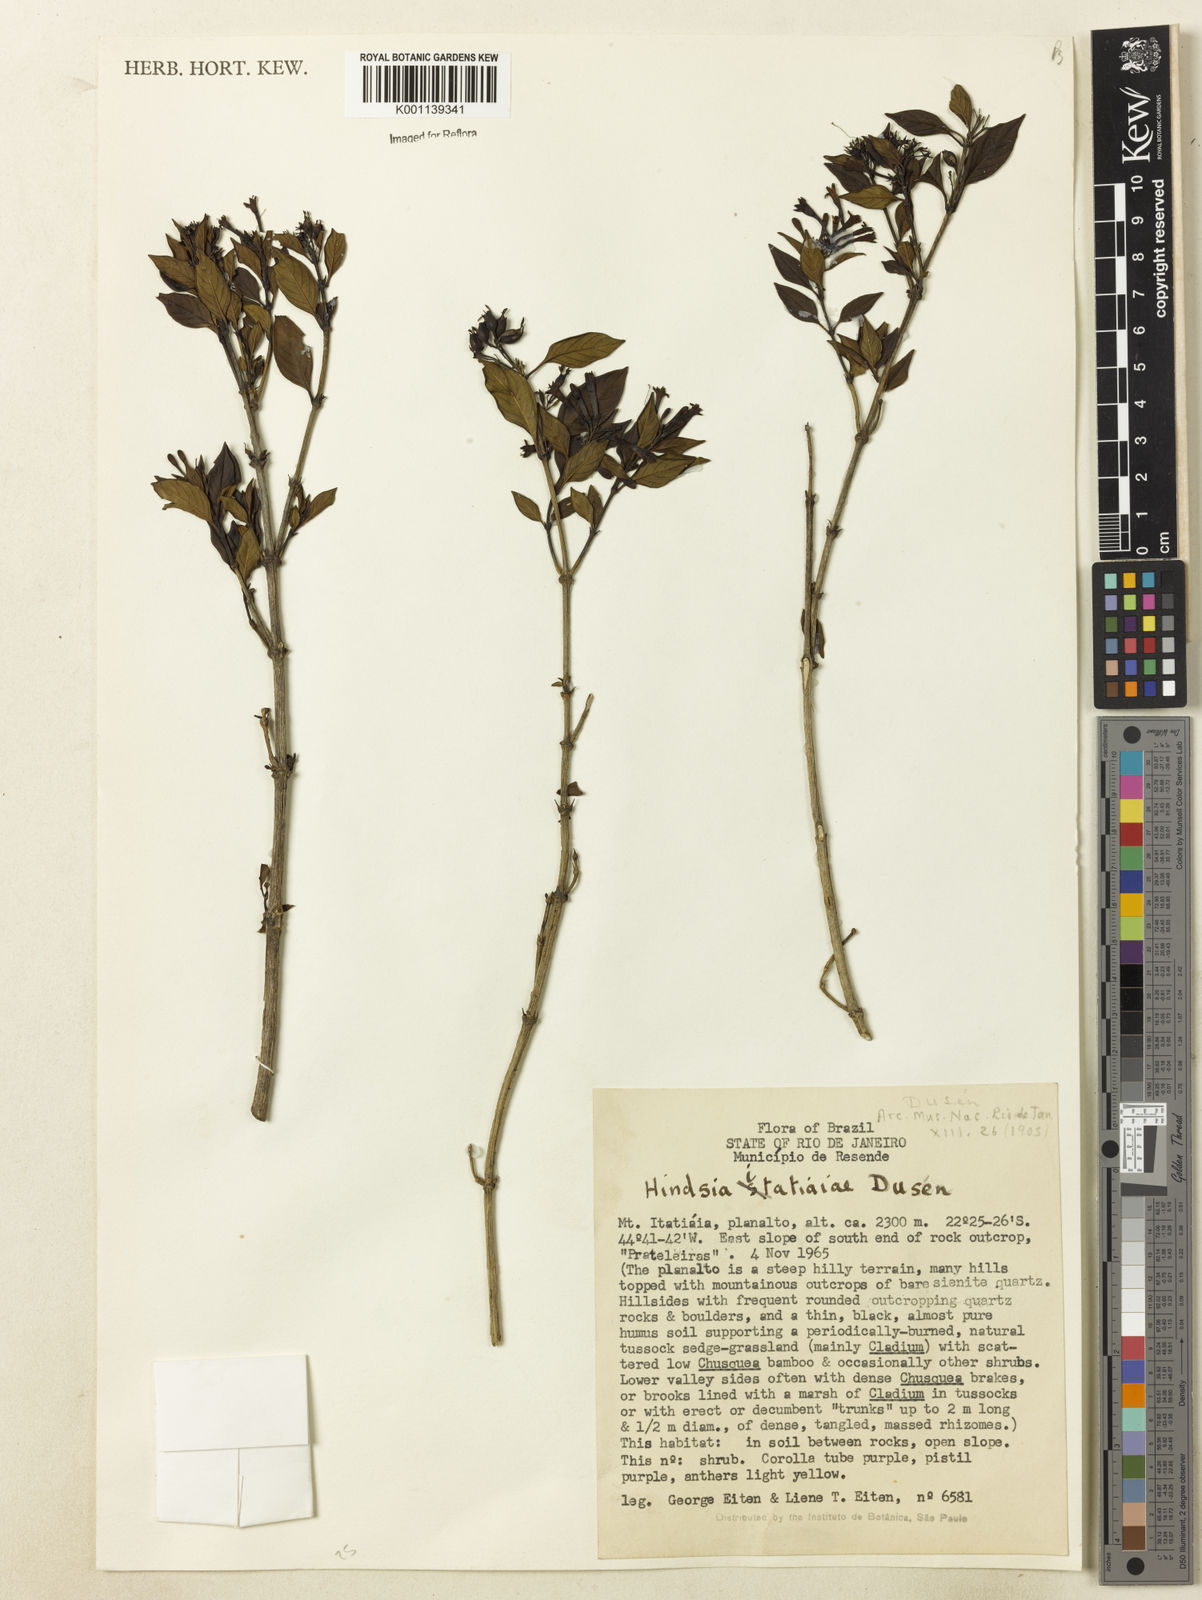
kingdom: Plantae
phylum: Tracheophyta
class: Magnoliopsida
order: Gentianales
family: Rubiaceae
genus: Hindsia
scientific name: Hindsia
